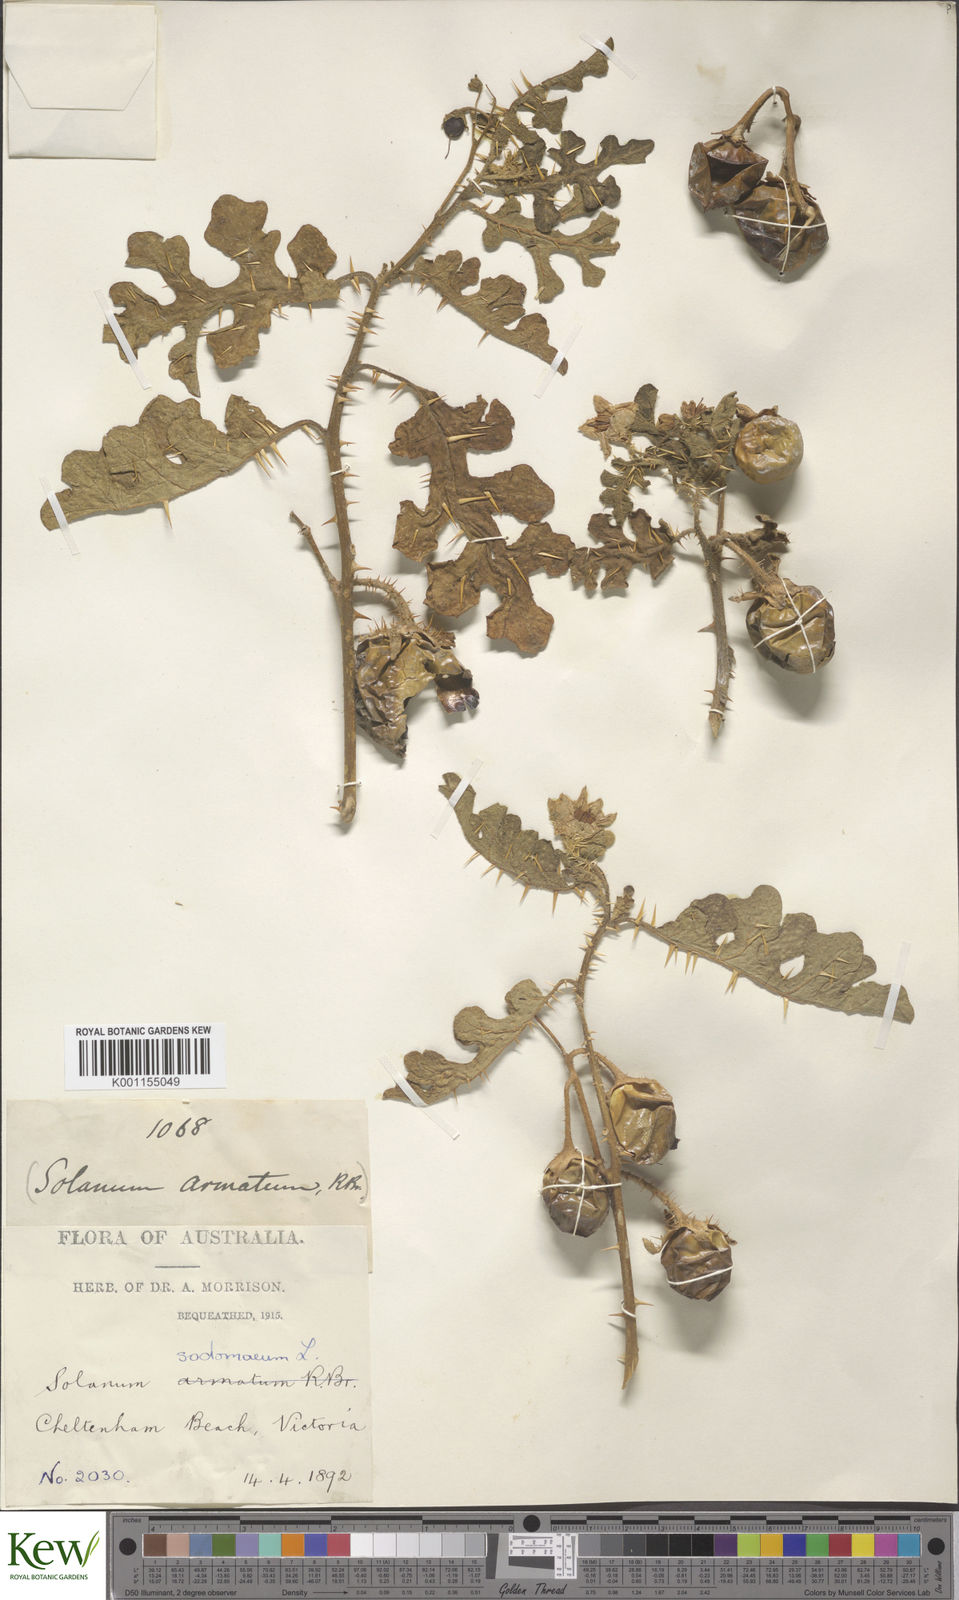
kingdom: Plantae
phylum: Tracheophyta
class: Magnoliopsida
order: Solanales
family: Solanaceae
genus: Solanum
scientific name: Solanum anguivi
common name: Forest bitterberry
